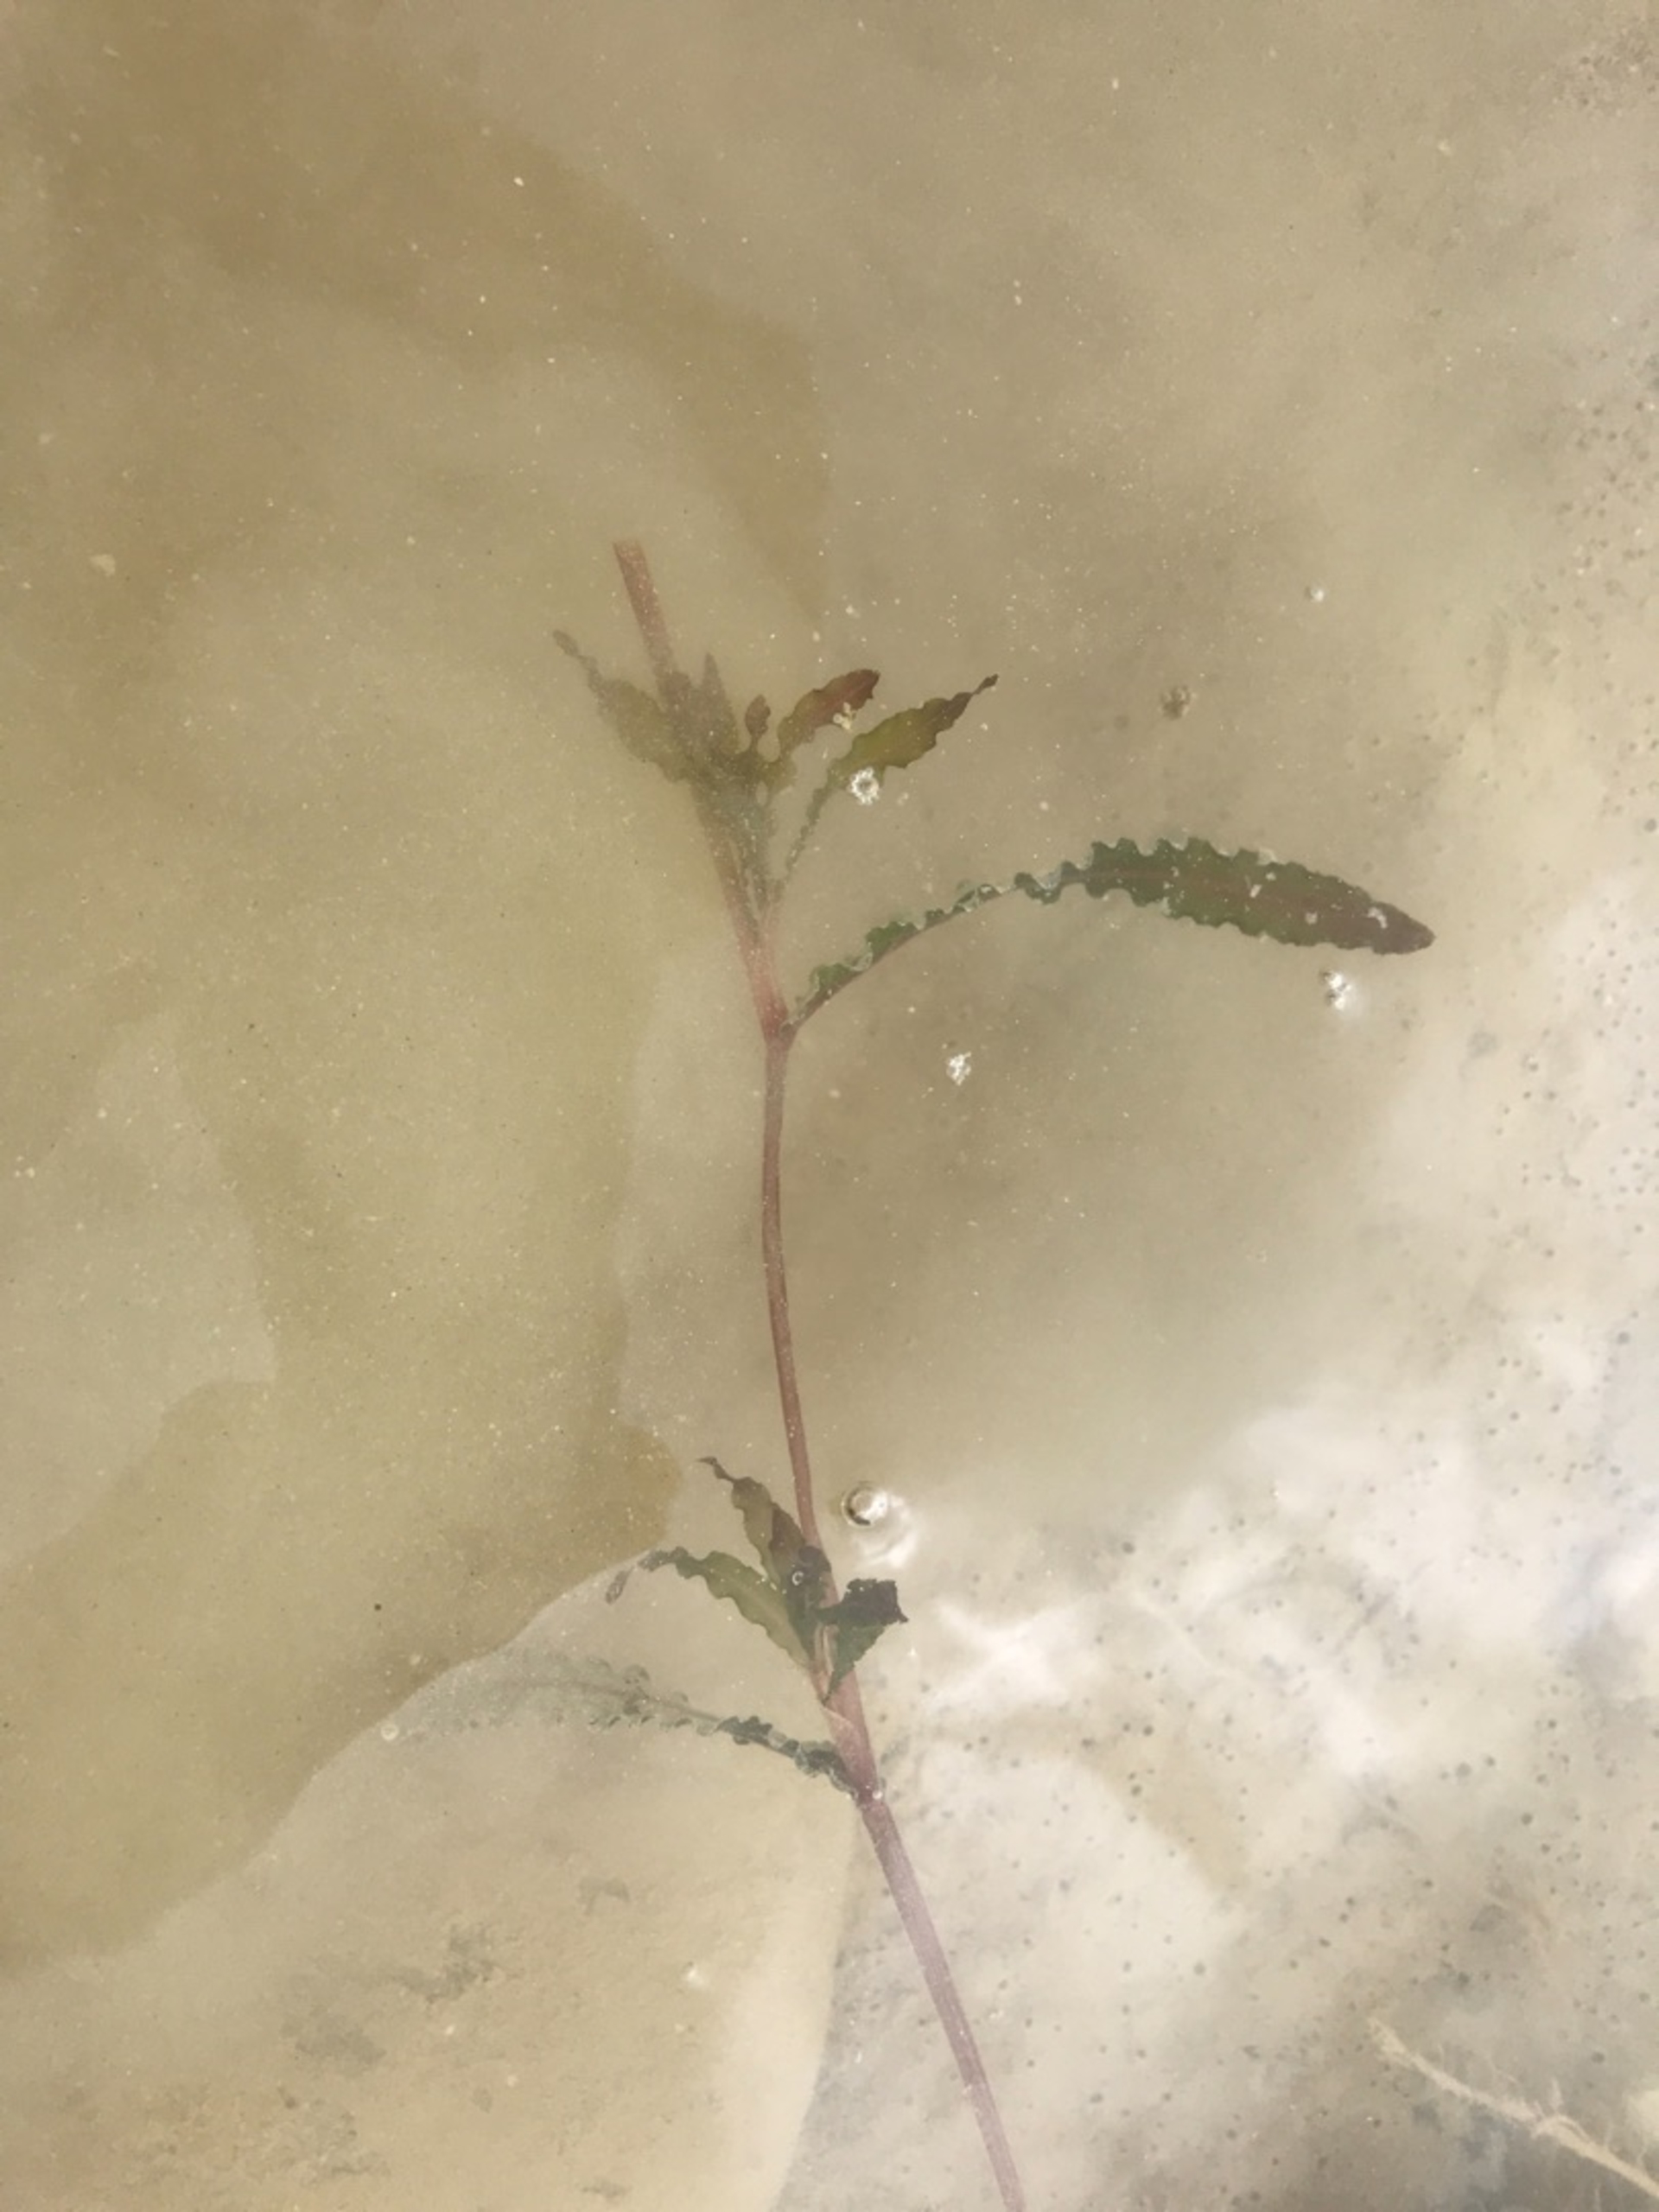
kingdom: Plantae
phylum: Tracheophyta
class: Liliopsida
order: Alismatales
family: Potamogetonaceae
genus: Potamogeton
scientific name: Potamogeton crispus
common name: Kruset vandaks
